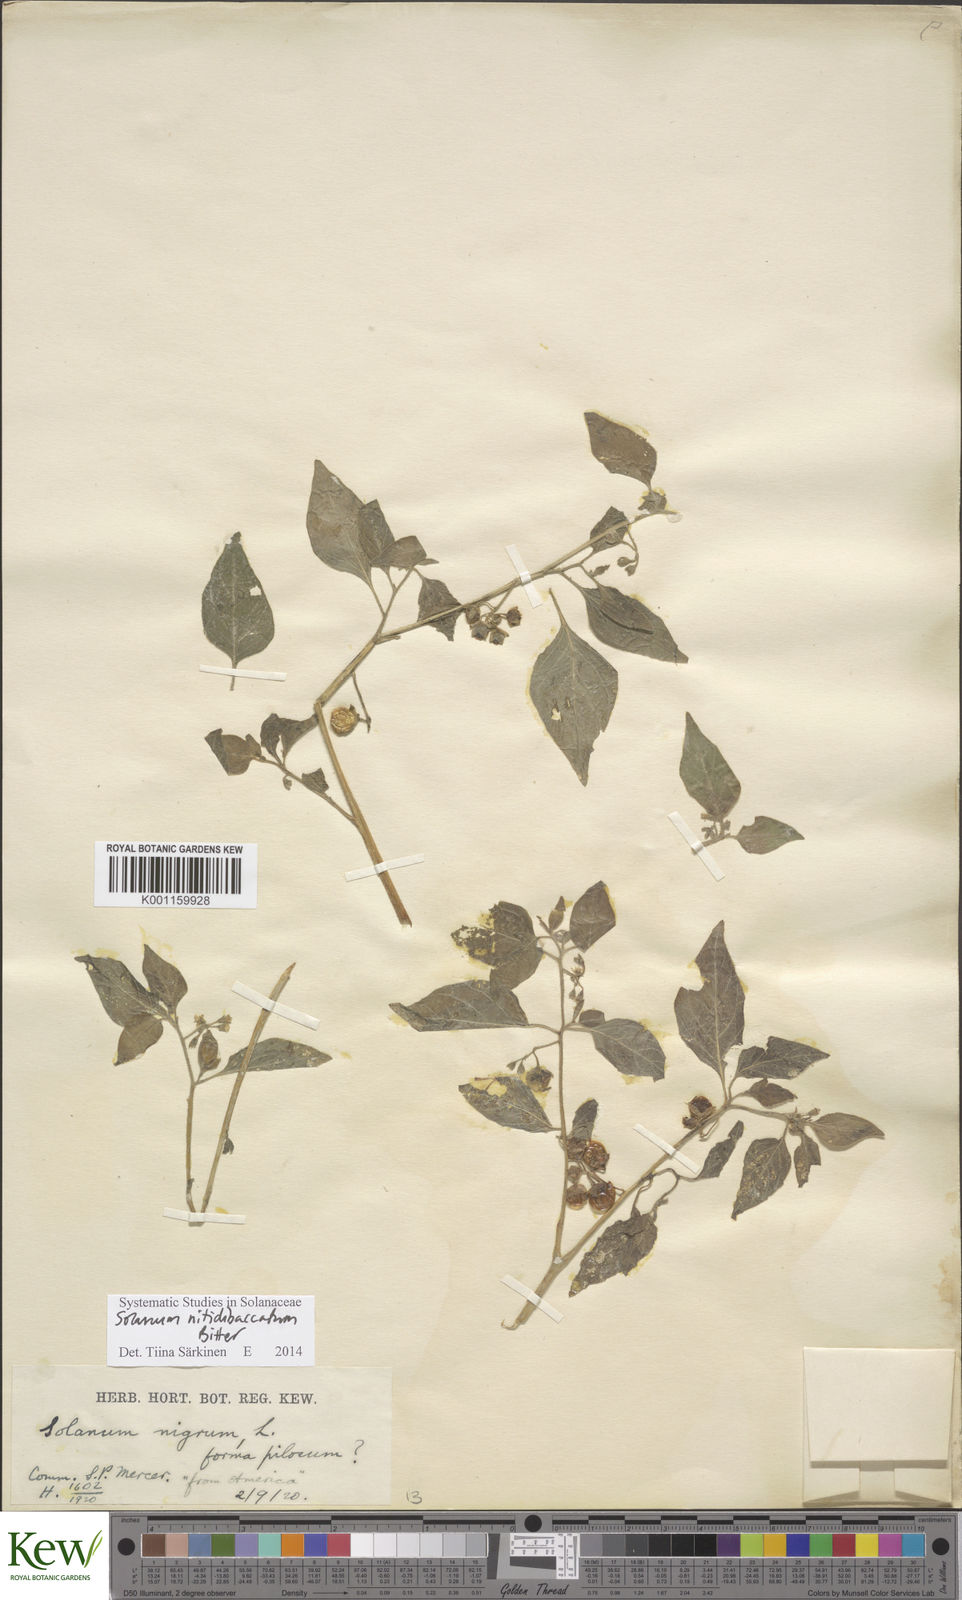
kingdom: Plantae
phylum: Tracheophyta
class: Magnoliopsida
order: Solanales
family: Solanaceae
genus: Solanum
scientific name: Solanum nitidibaccatum
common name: Hairy nightshade
